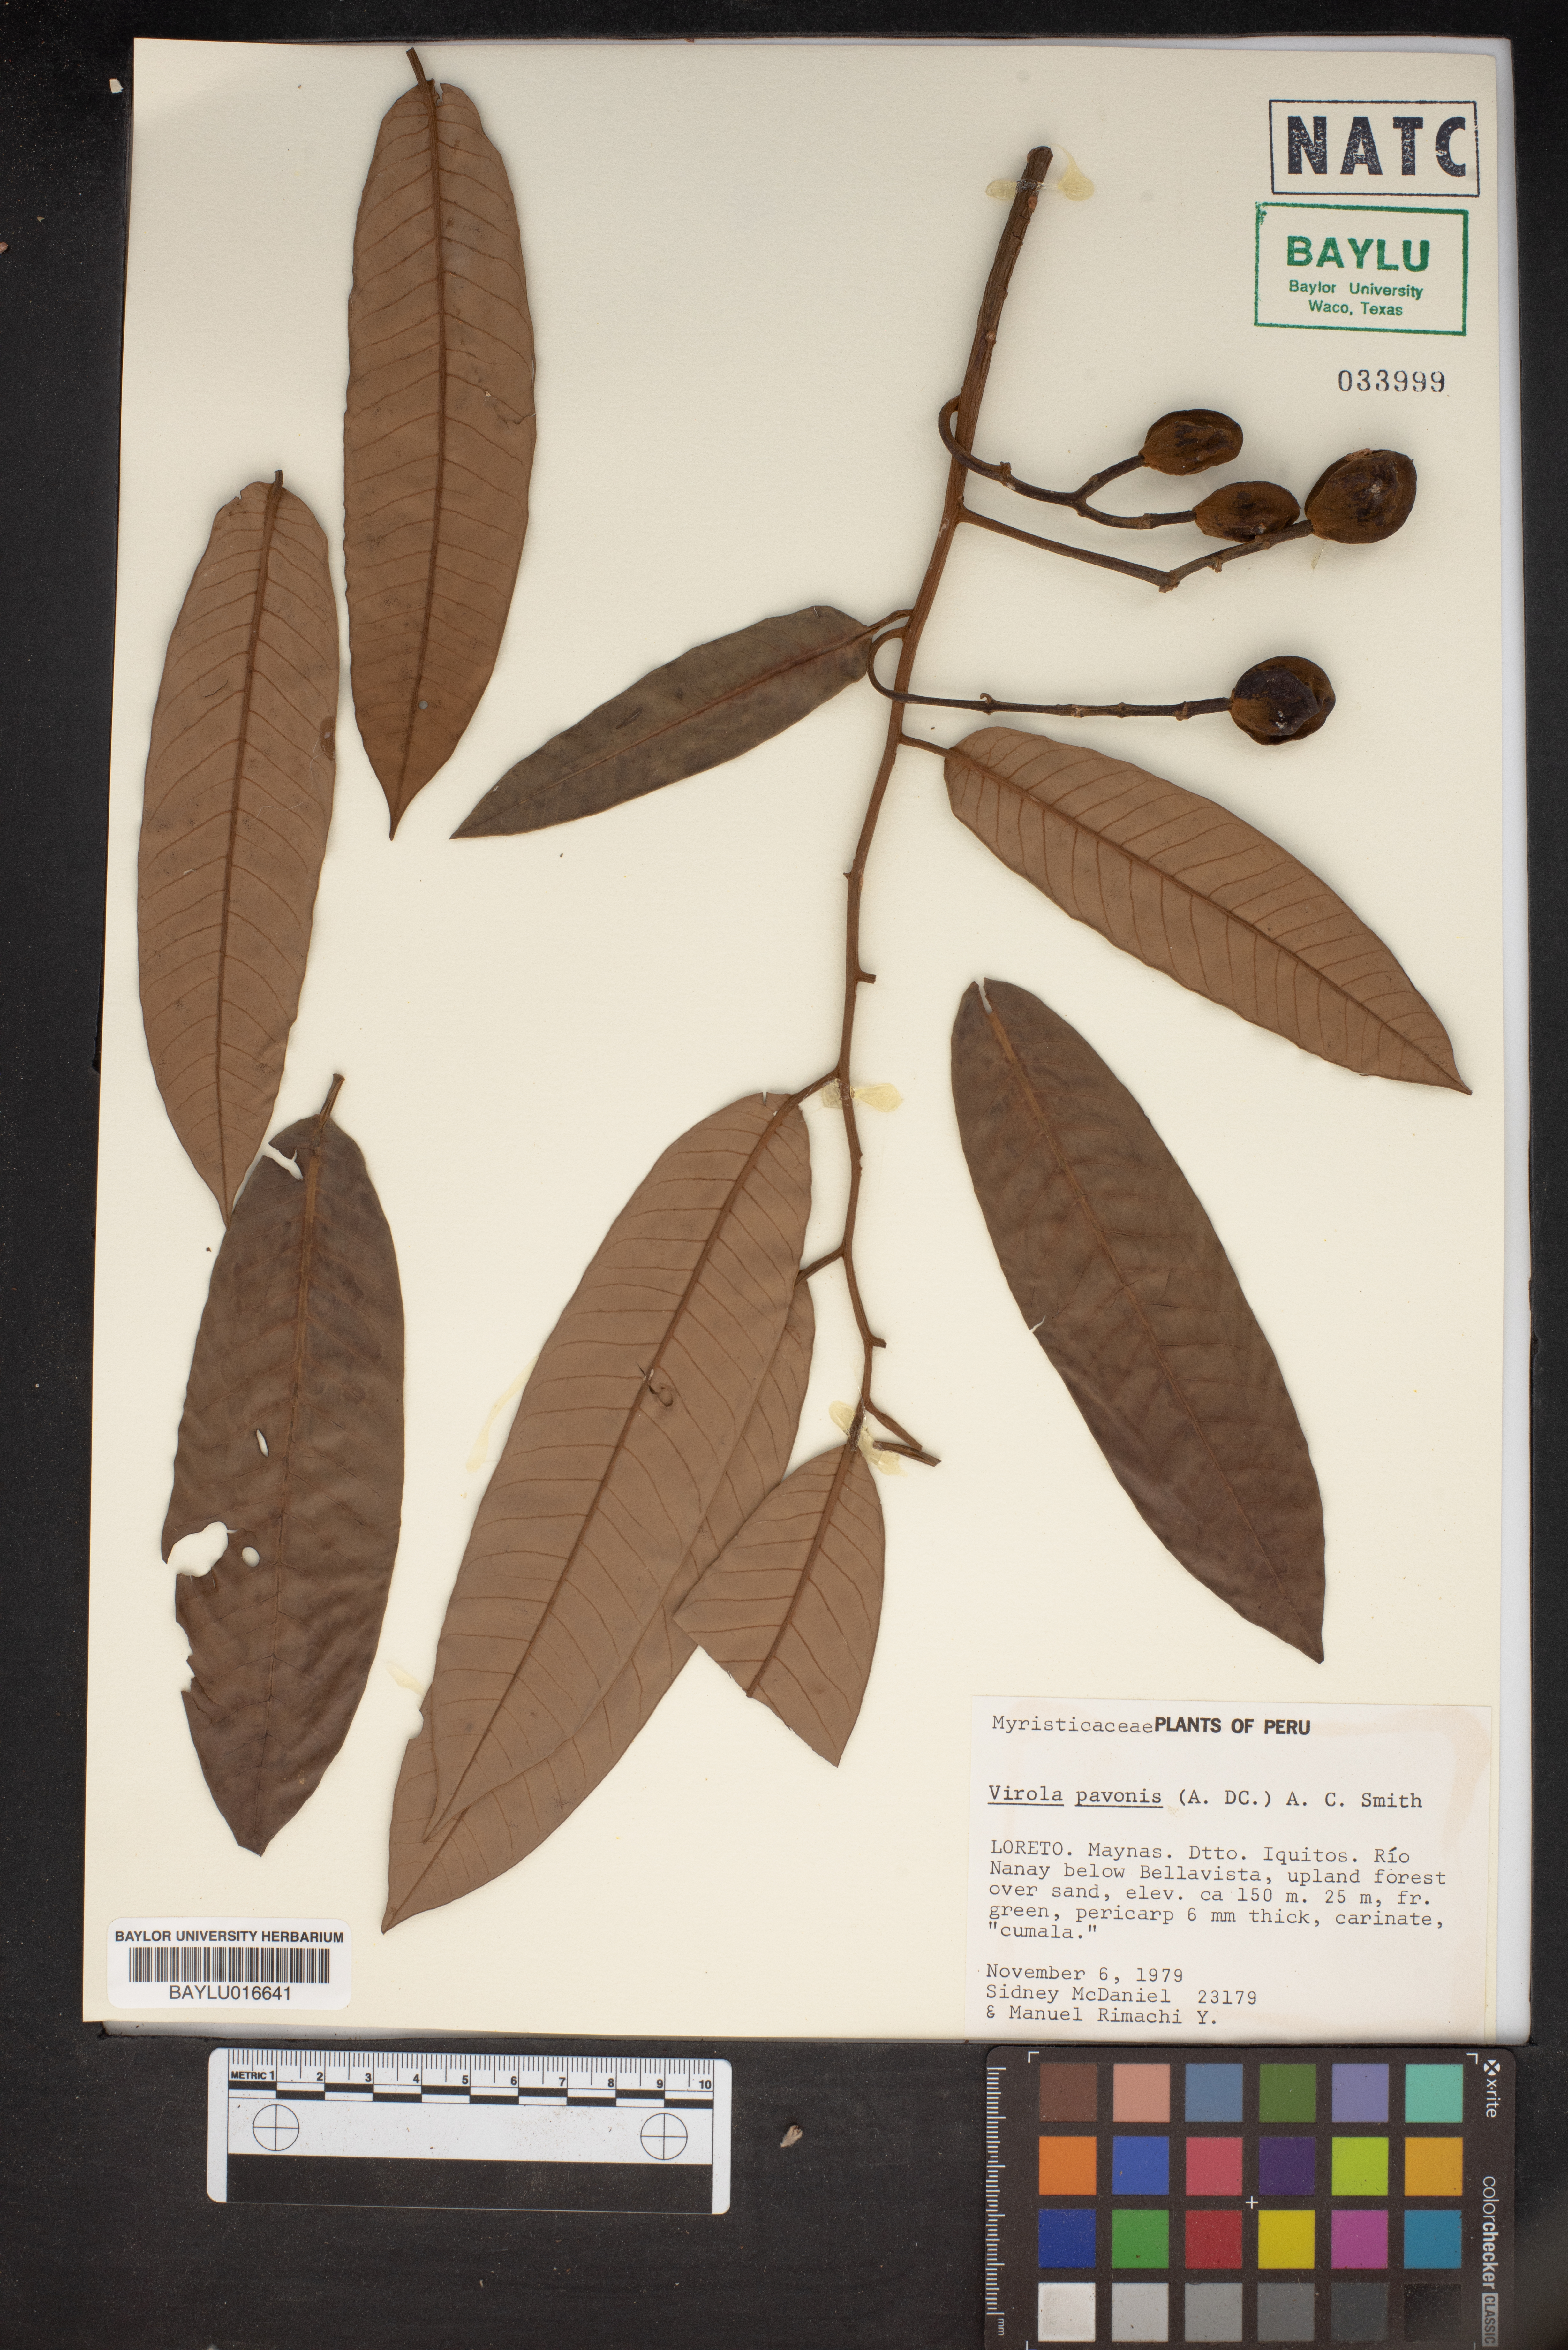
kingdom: Plantae
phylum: Tracheophyta
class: Magnoliopsida
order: Magnoliales
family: Myristicaceae
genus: Virola
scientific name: Virola pavonis
